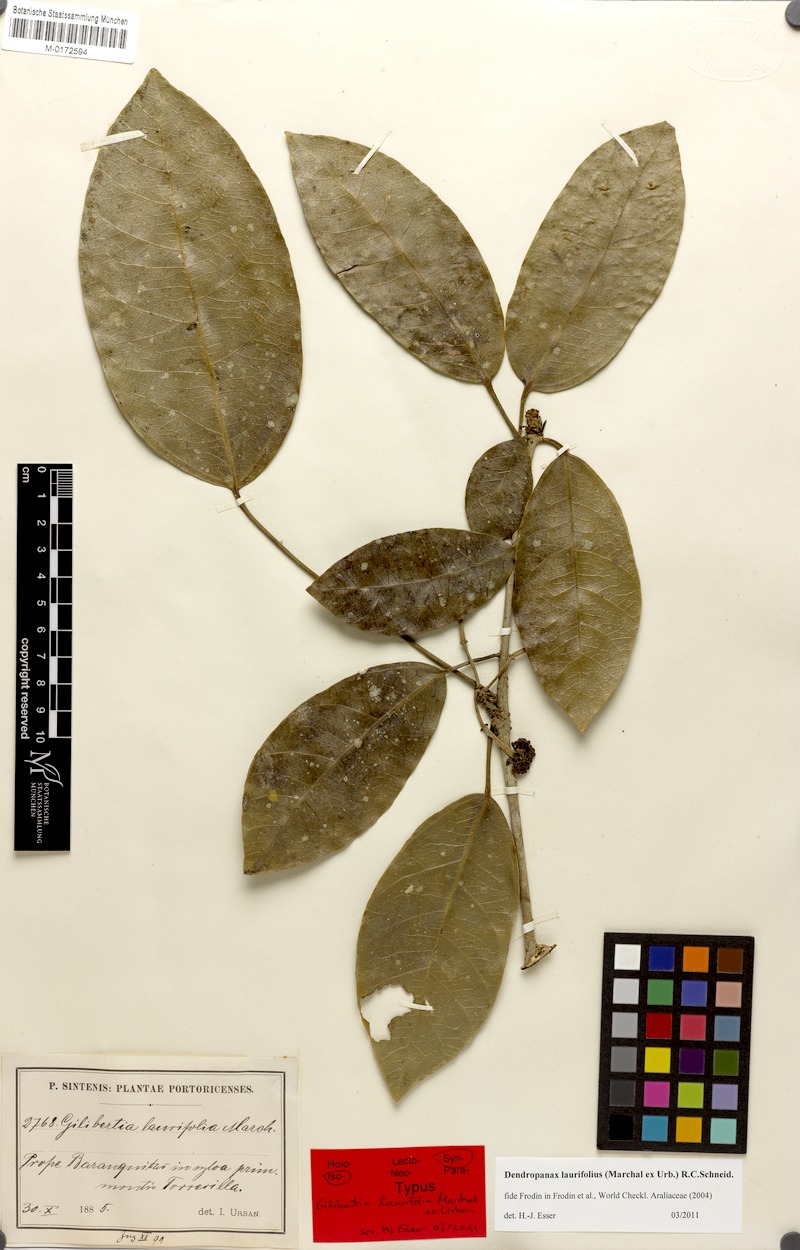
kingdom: Plantae
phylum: Tracheophyta
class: Magnoliopsida
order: Apiales
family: Araliaceae
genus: Dendropanax
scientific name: Dendropanax laurifolius
